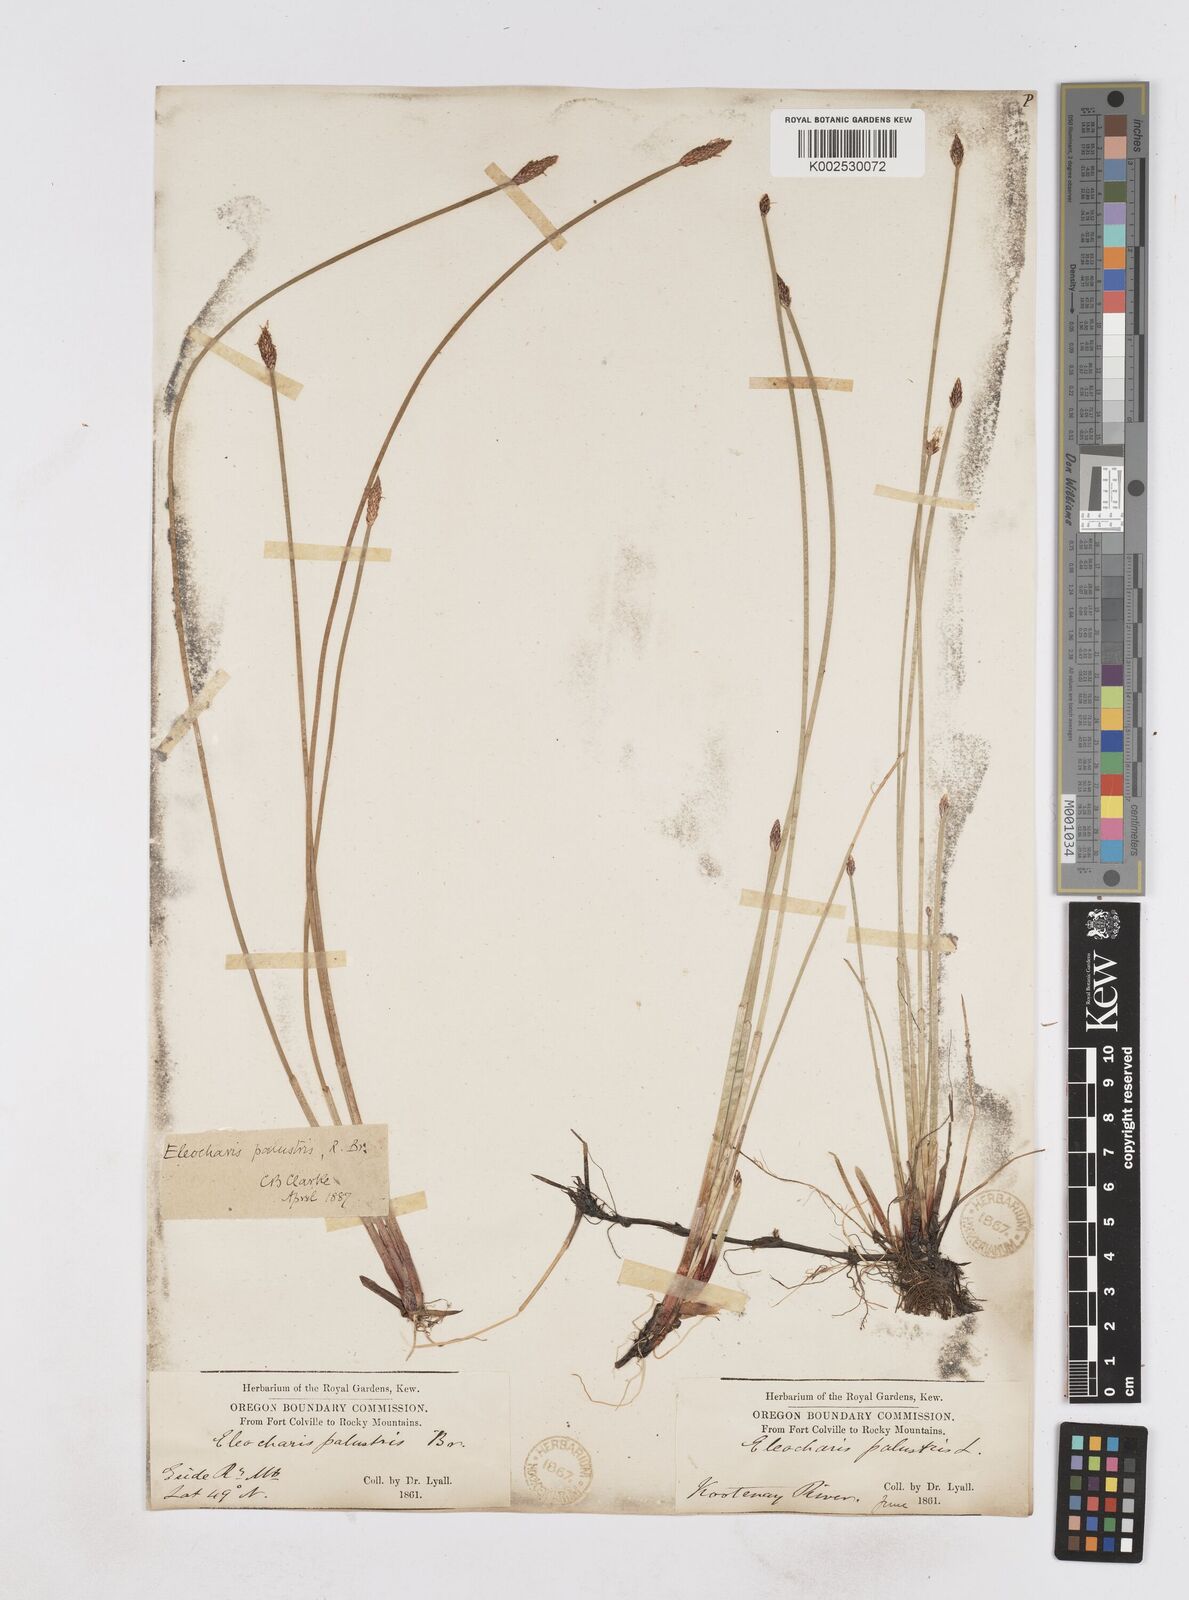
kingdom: Plantae
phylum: Tracheophyta
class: Liliopsida
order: Poales
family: Cyperaceae
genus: Eleocharis
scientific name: Eleocharis palustris
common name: Common spike-rush
